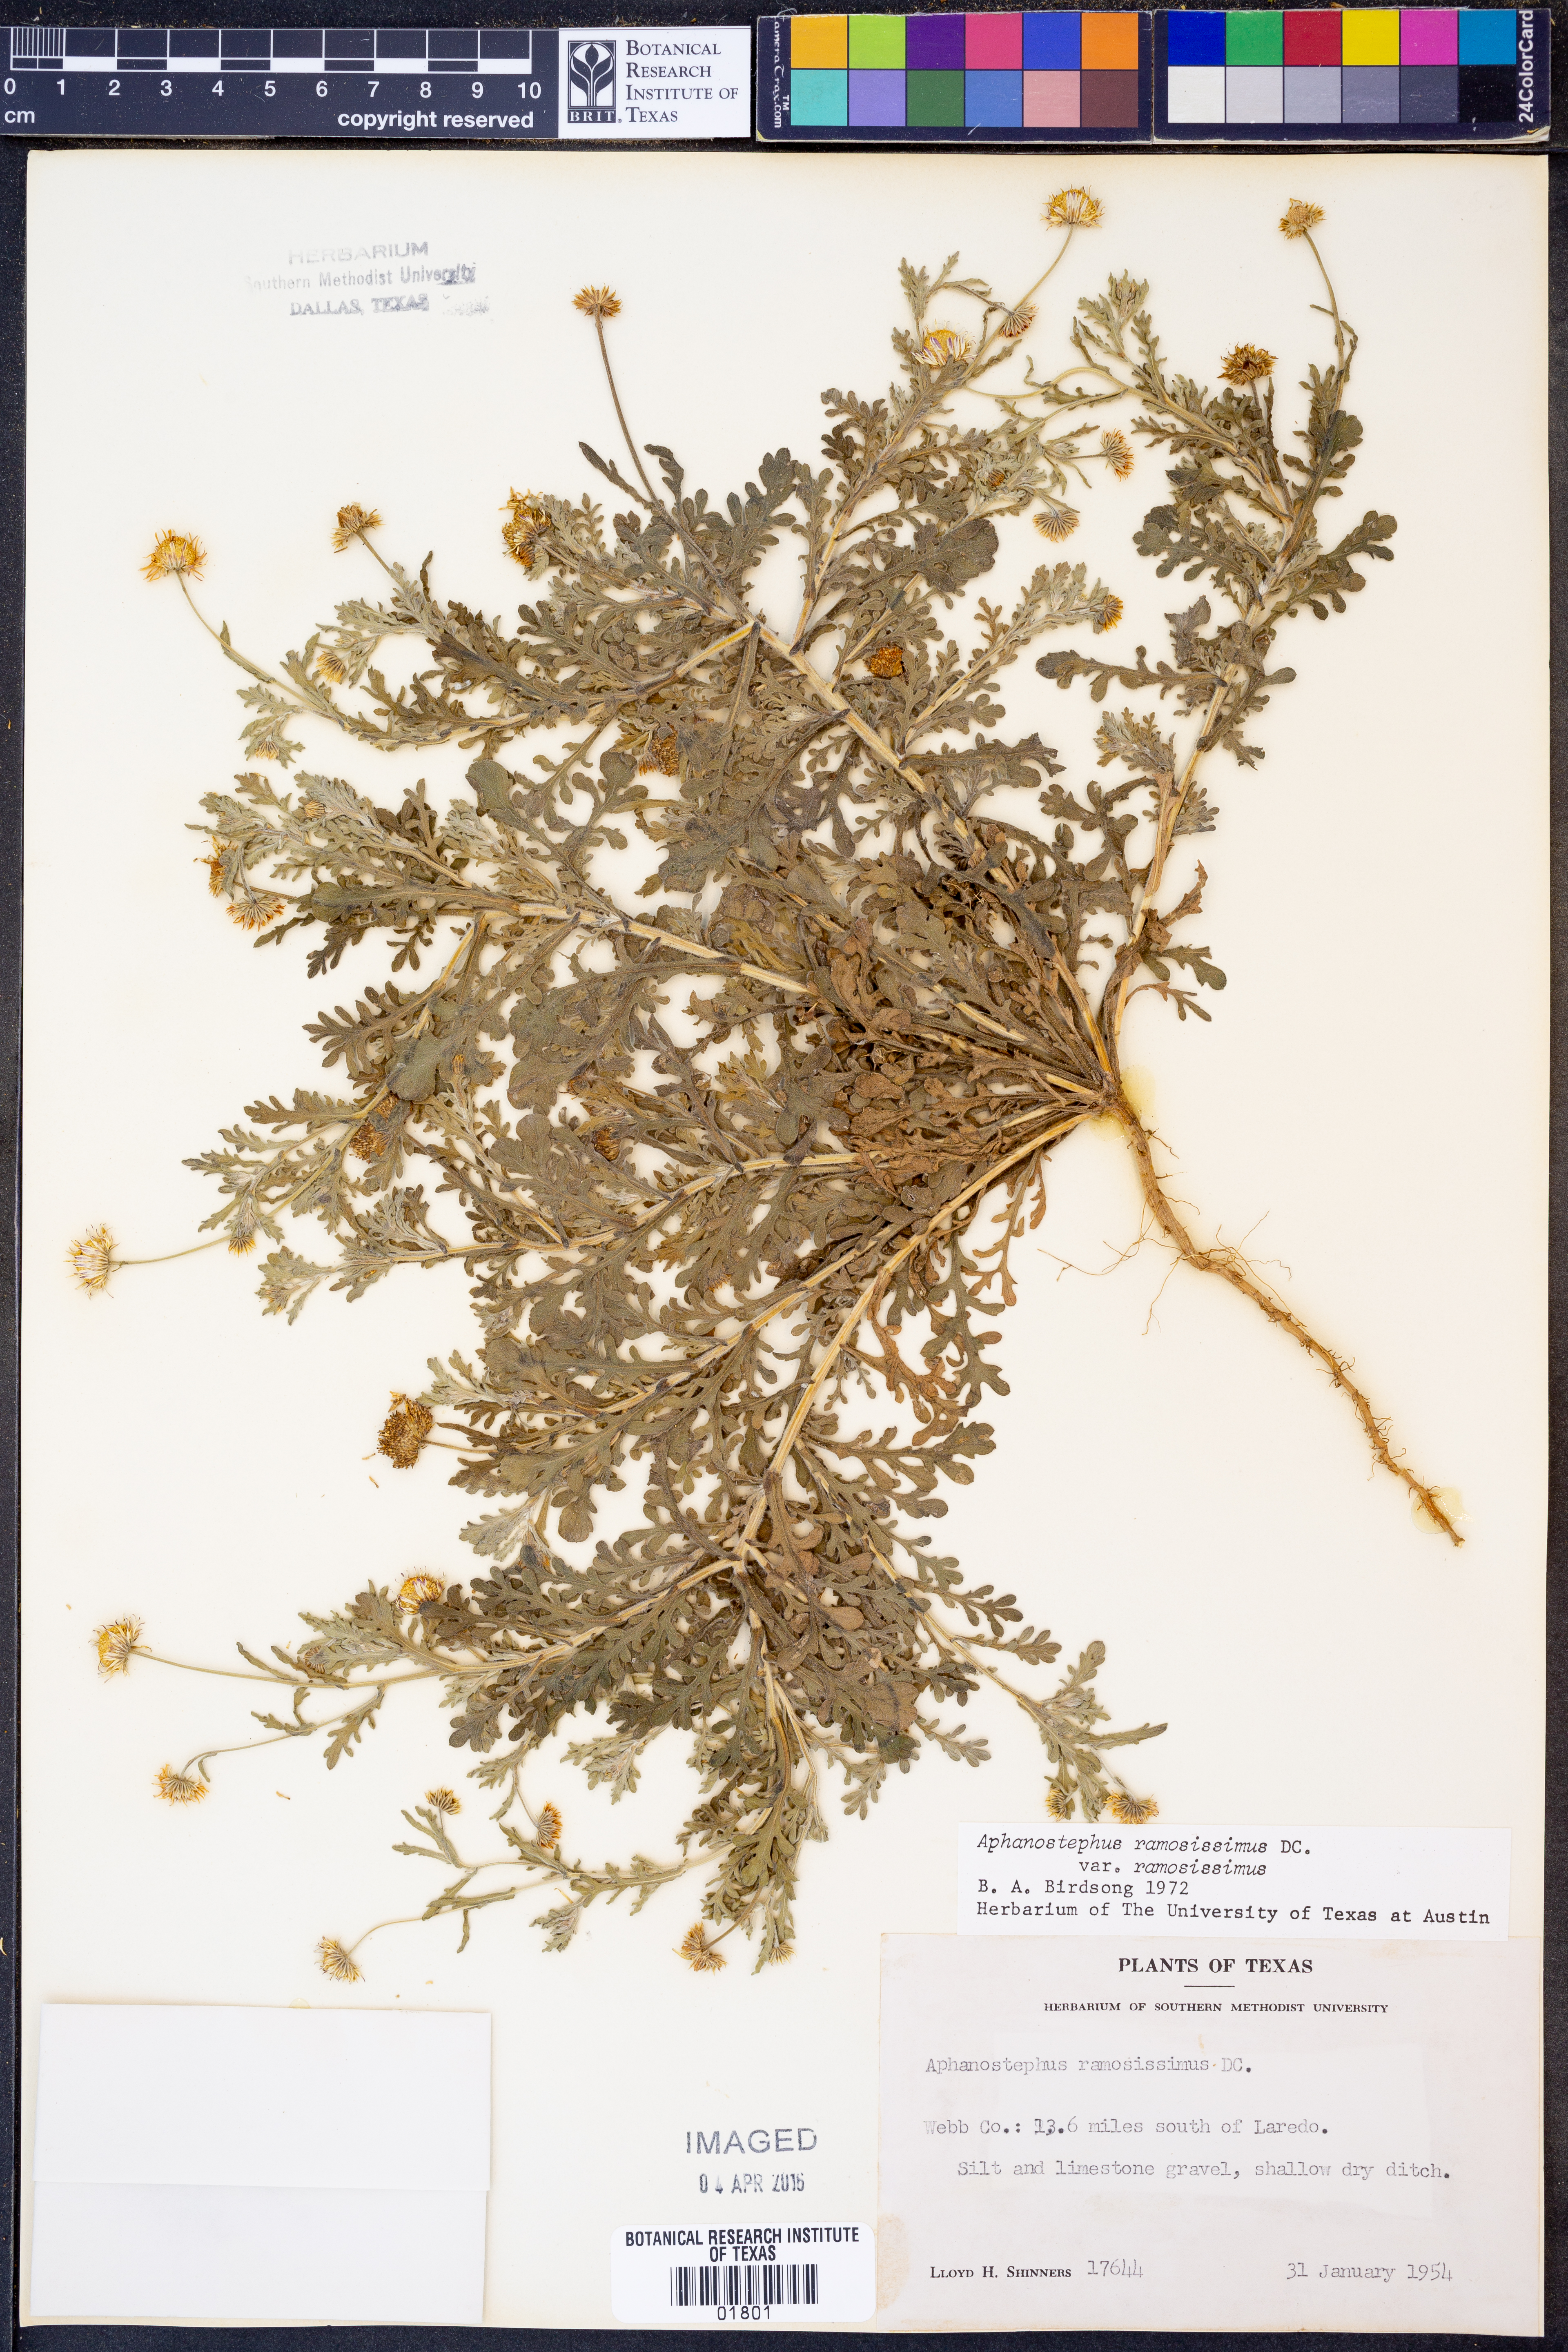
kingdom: Plantae
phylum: Tracheophyta
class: Magnoliopsida
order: Asterales
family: Asteraceae
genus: Aphanostephus
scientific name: Aphanostephus ramosissimus
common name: Plains lazy daisy
